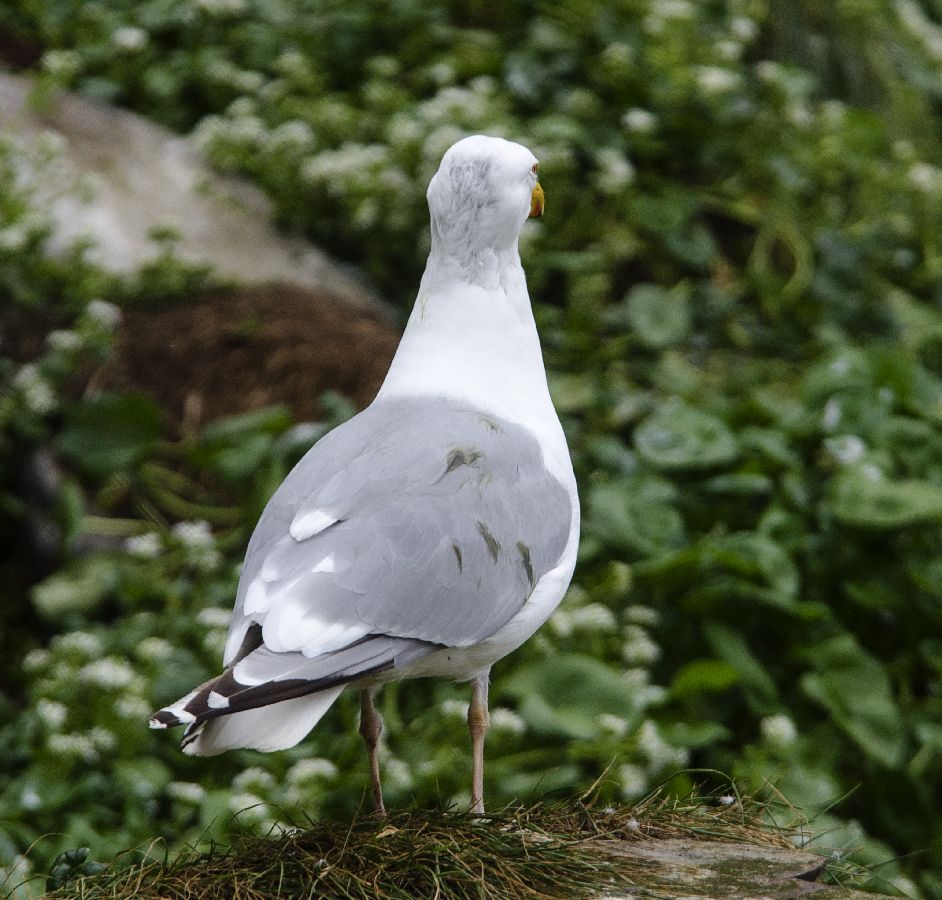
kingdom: Animalia
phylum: Chordata
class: Aves
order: Charadriiformes
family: Laridae
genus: Larus
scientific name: Larus hyperboreus
